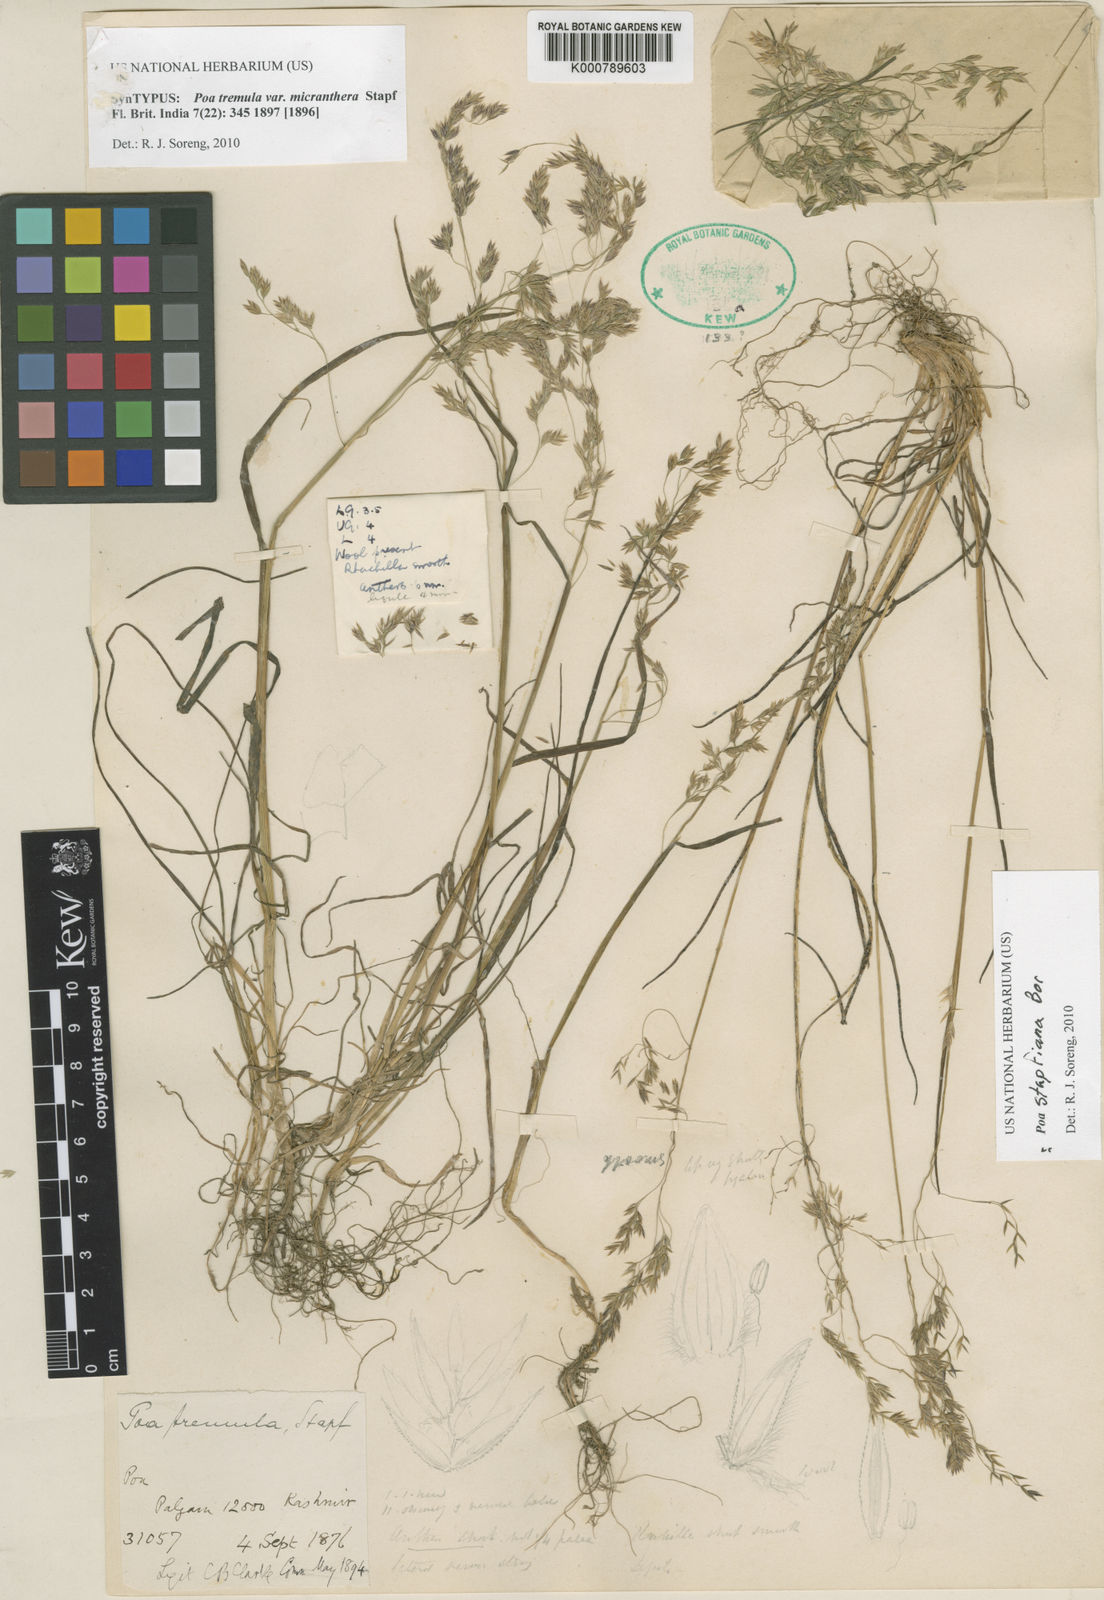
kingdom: Plantae
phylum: Tracheophyta
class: Liliopsida
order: Poales
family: Poaceae
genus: Poa
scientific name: Poa stapfiana
